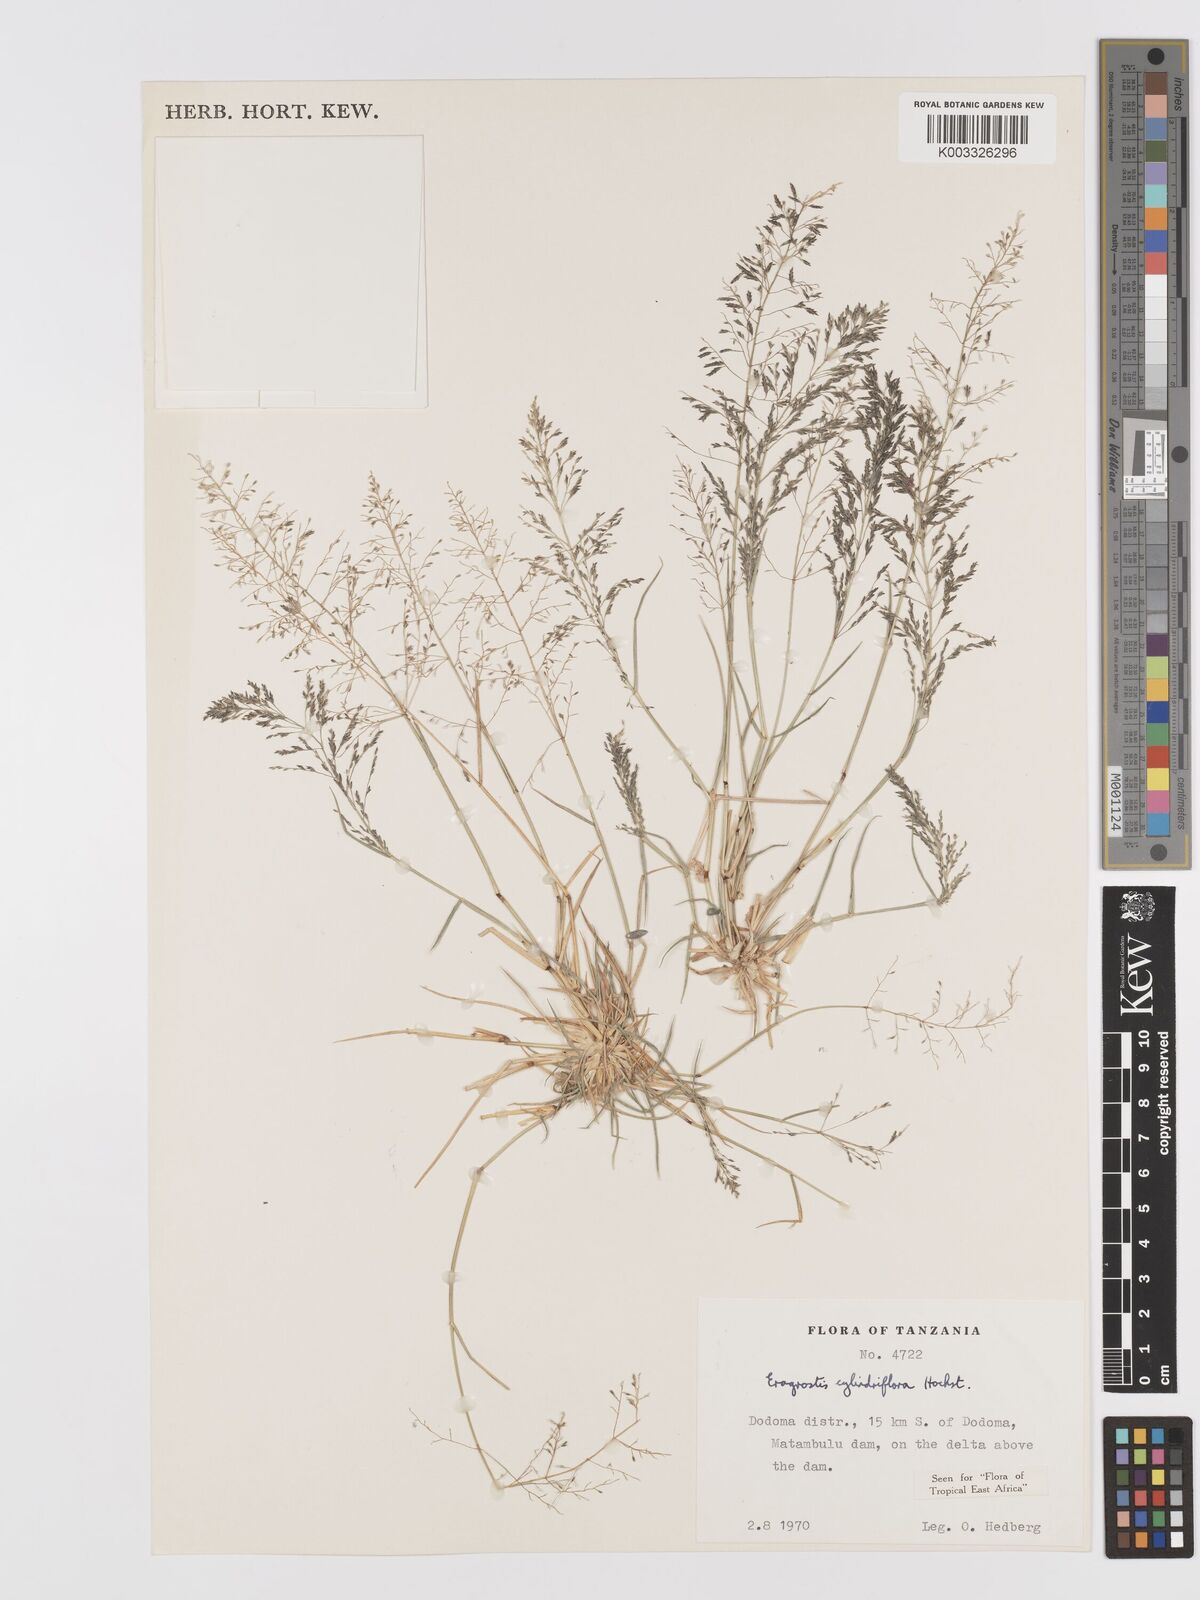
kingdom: Plantae
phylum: Tracheophyta
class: Liliopsida
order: Poales
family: Poaceae
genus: Eragrostis
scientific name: Eragrostis cylindriflora
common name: Cylinderflower lovegrass
